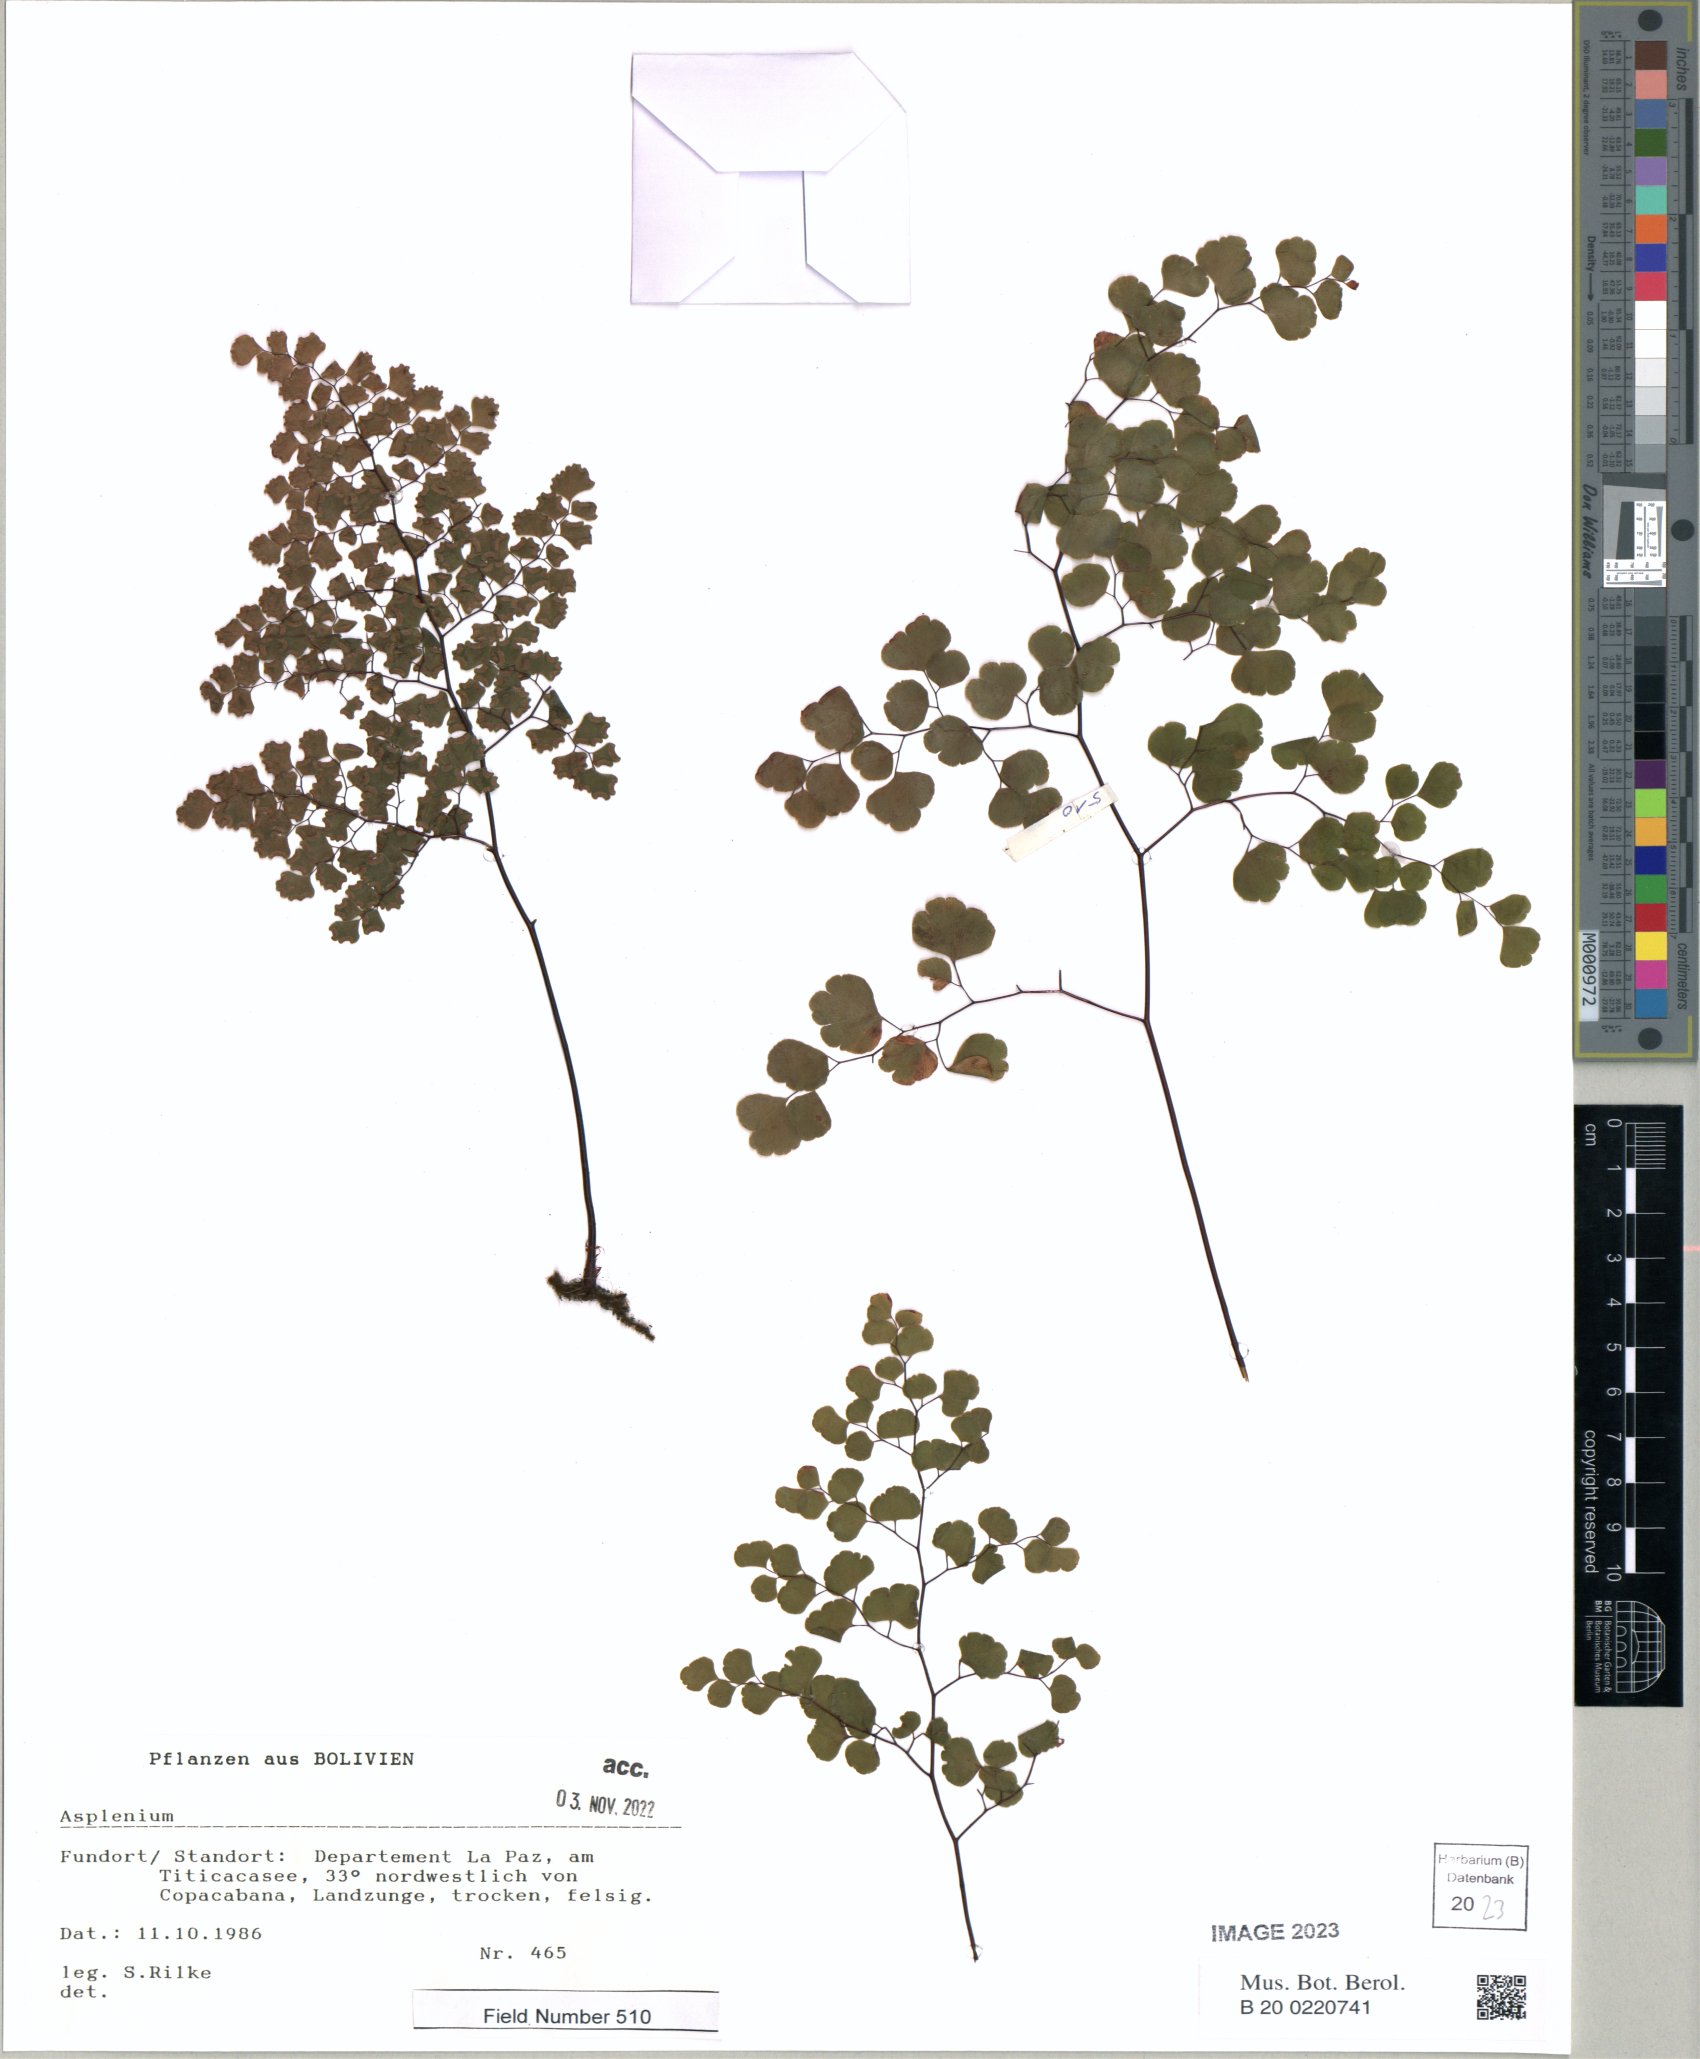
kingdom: Plantae
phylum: Tracheophyta
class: Polypodiopsida
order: Polypodiales
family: Pteridaceae
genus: Adiantum
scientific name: Adiantum capillus-veneris
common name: Maidenhair fern
